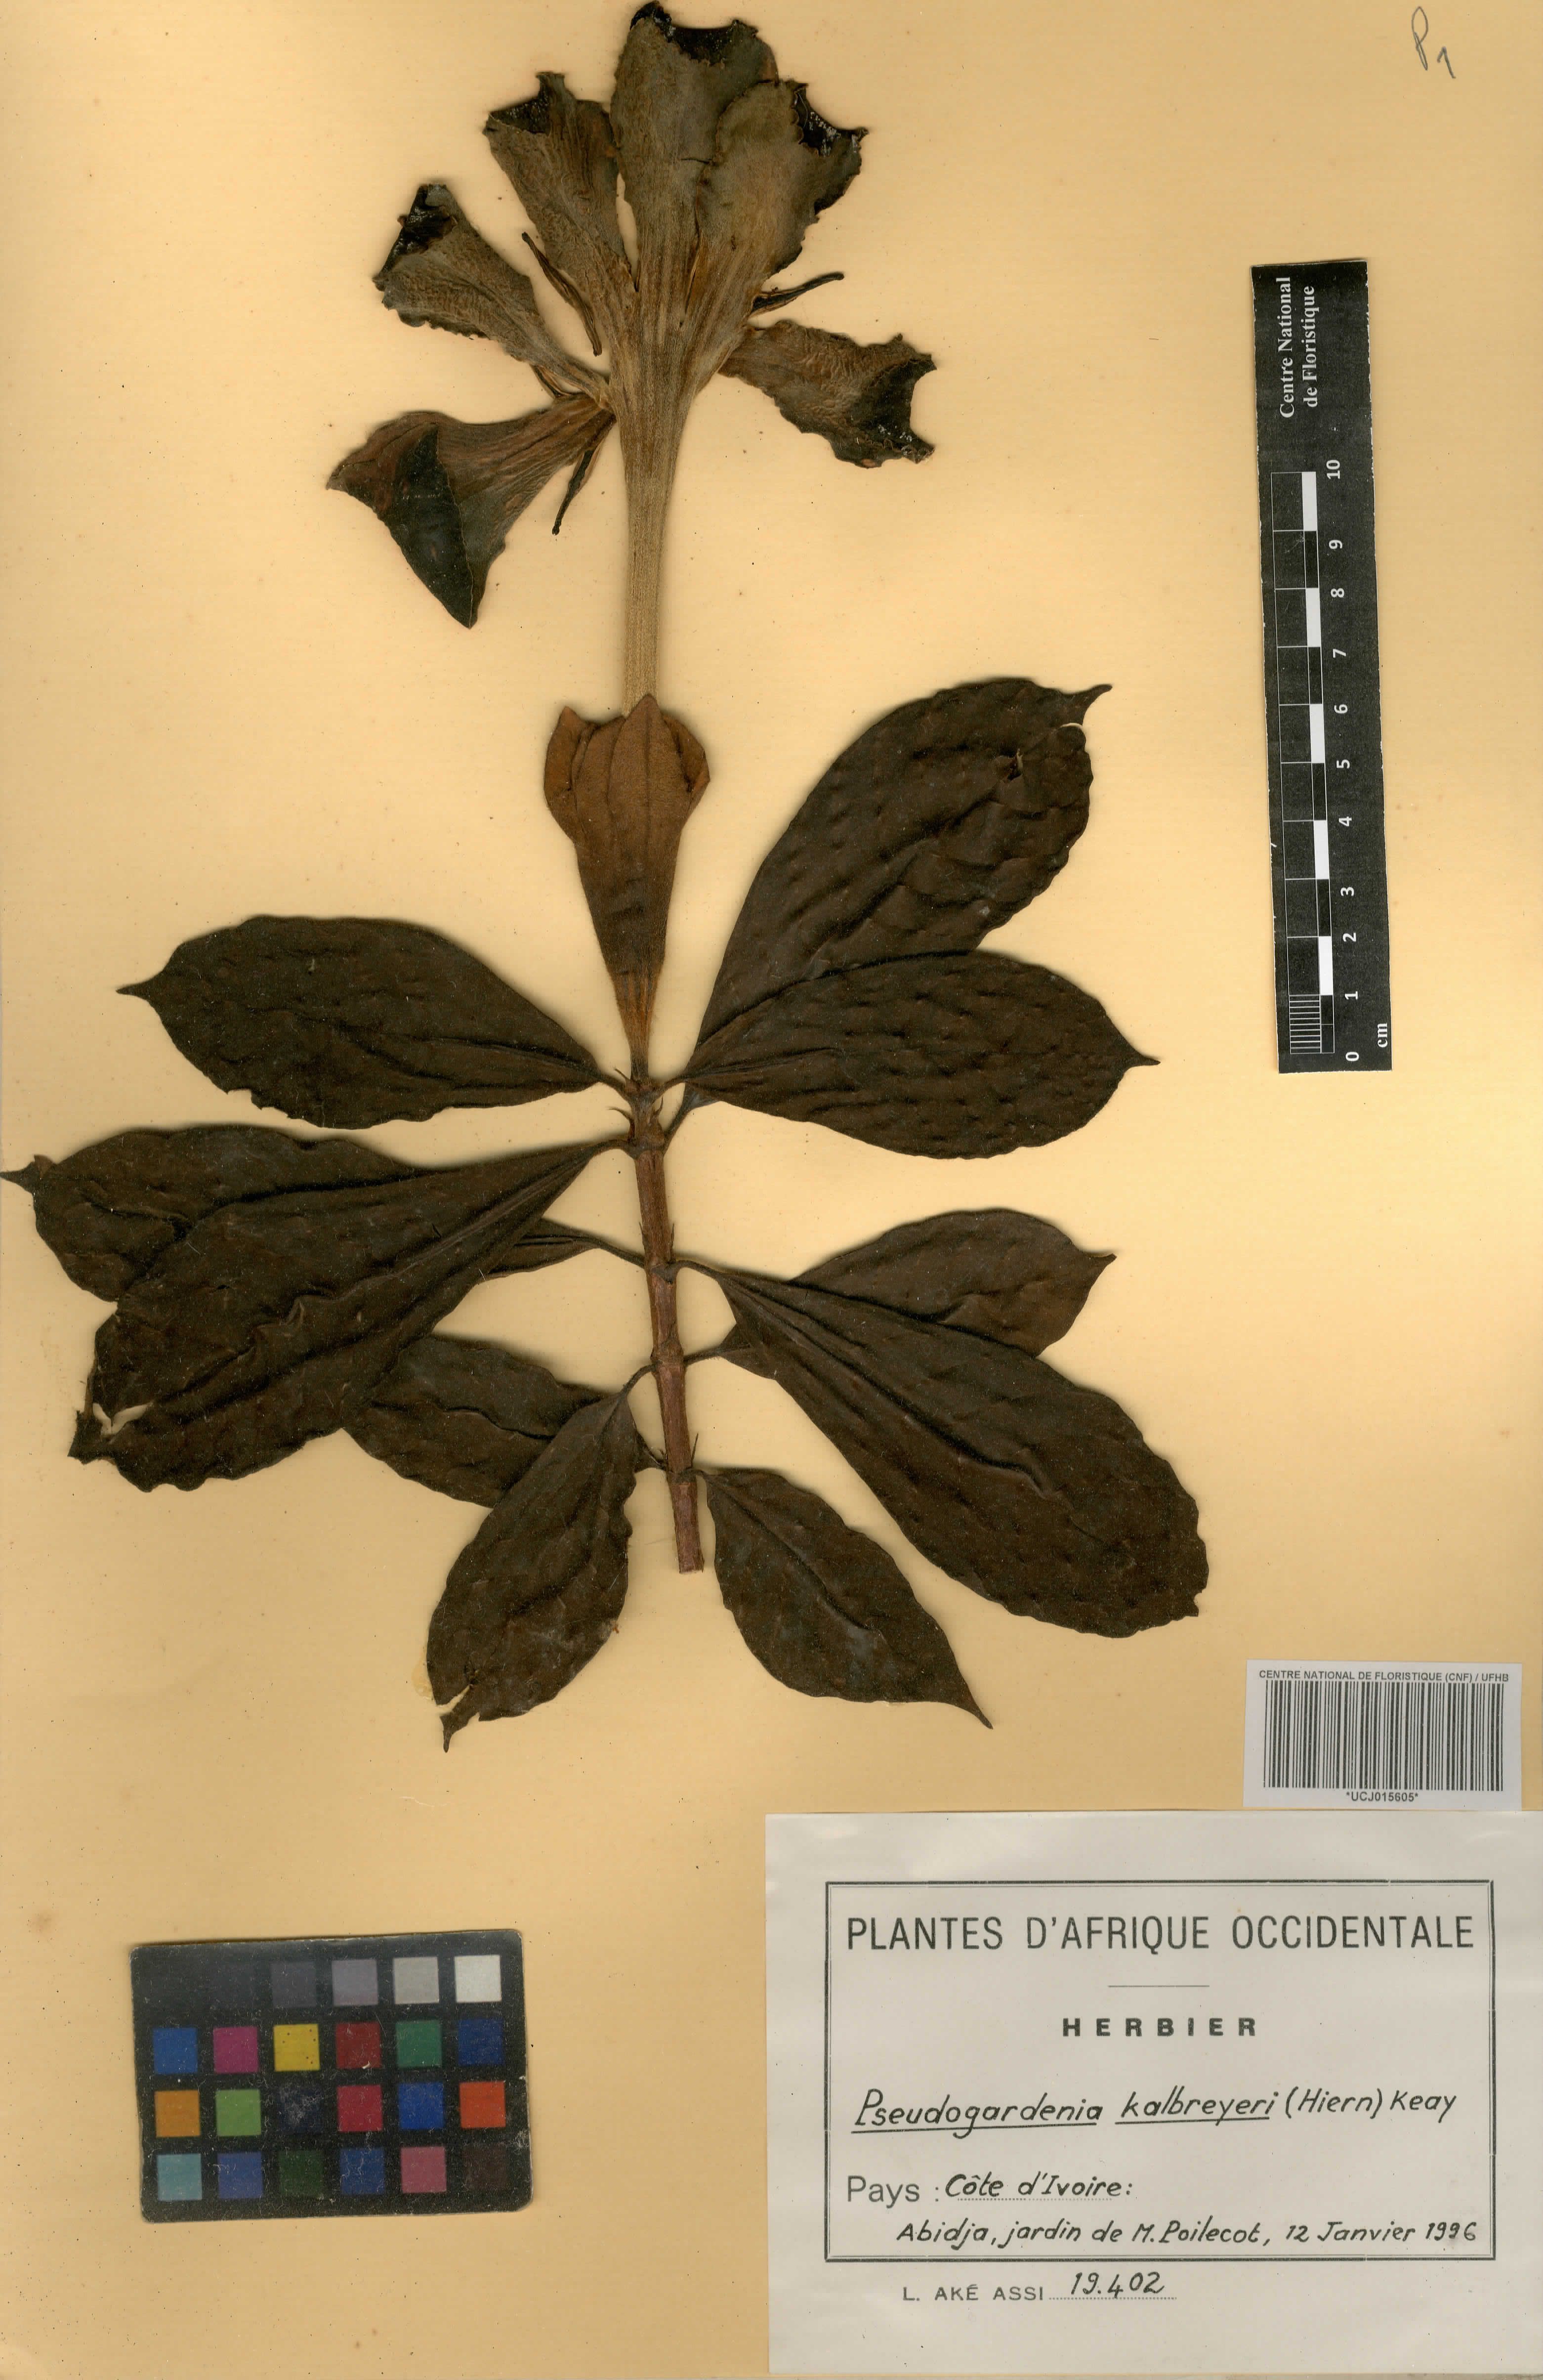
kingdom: Plantae
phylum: Tracheophyta
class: Magnoliopsida
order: Gentianales
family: Rubiaceae
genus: Adenorandia
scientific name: Adenorandia kalbreyeri
